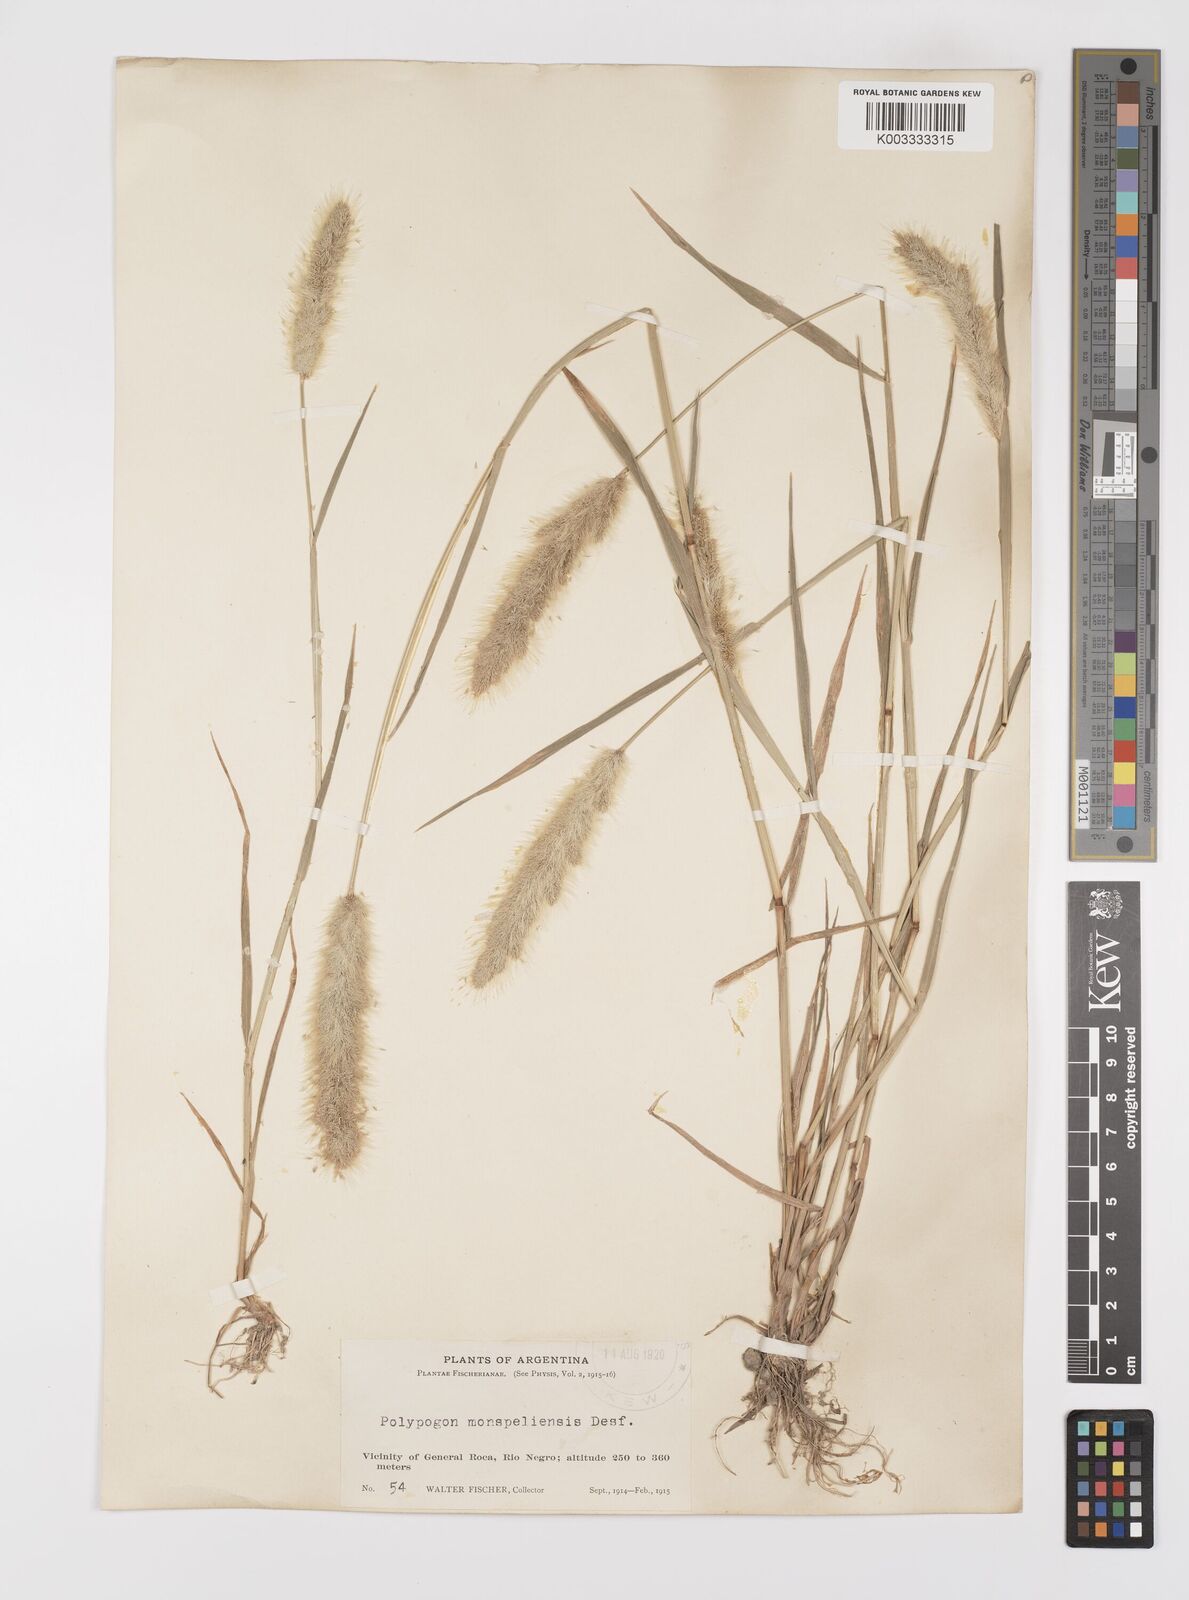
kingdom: Plantae
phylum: Tracheophyta
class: Liliopsida
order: Poales
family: Poaceae
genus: Polypogon
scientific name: Polypogon monspeliensis
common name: Annual rabbitsfoot grass
